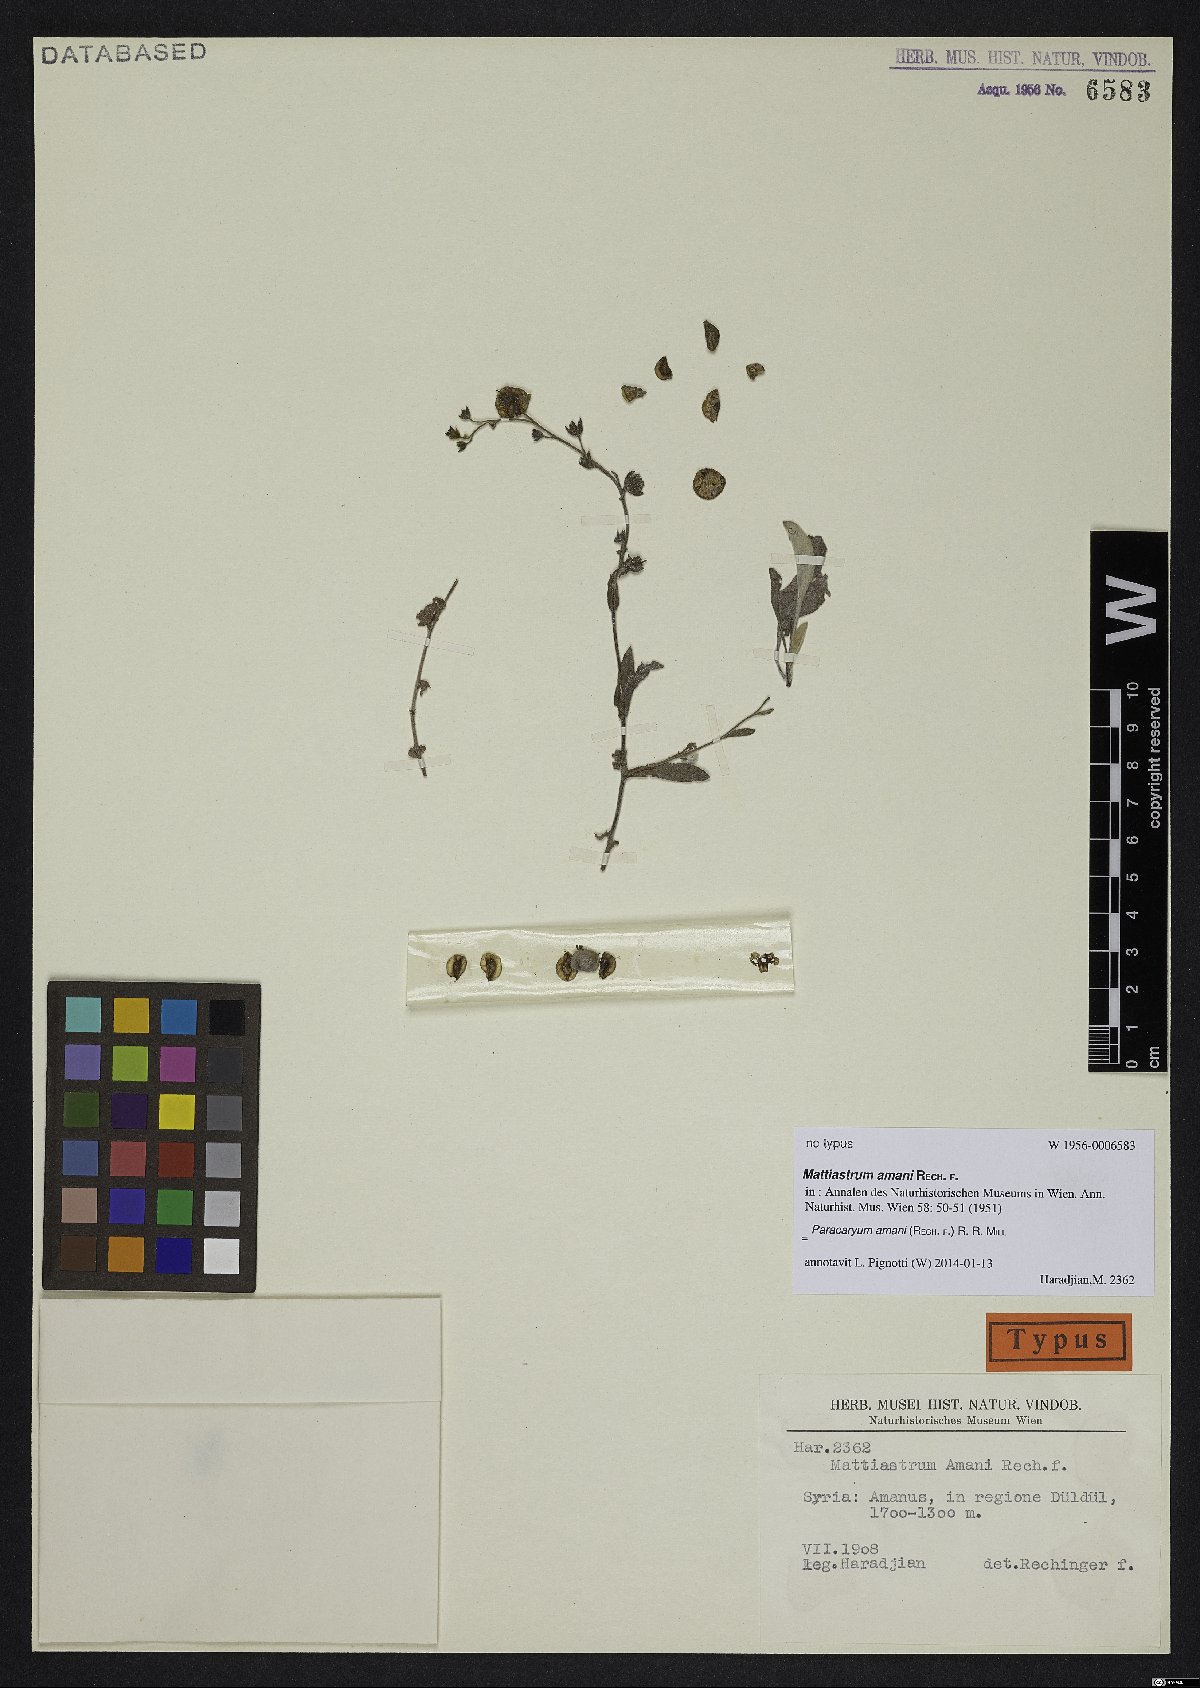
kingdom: Plantae
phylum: Tracheophyta
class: Magnoliopsida
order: Boraginales
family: Boraginaceae
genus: Paracaryum
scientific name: Paracaryum amani
